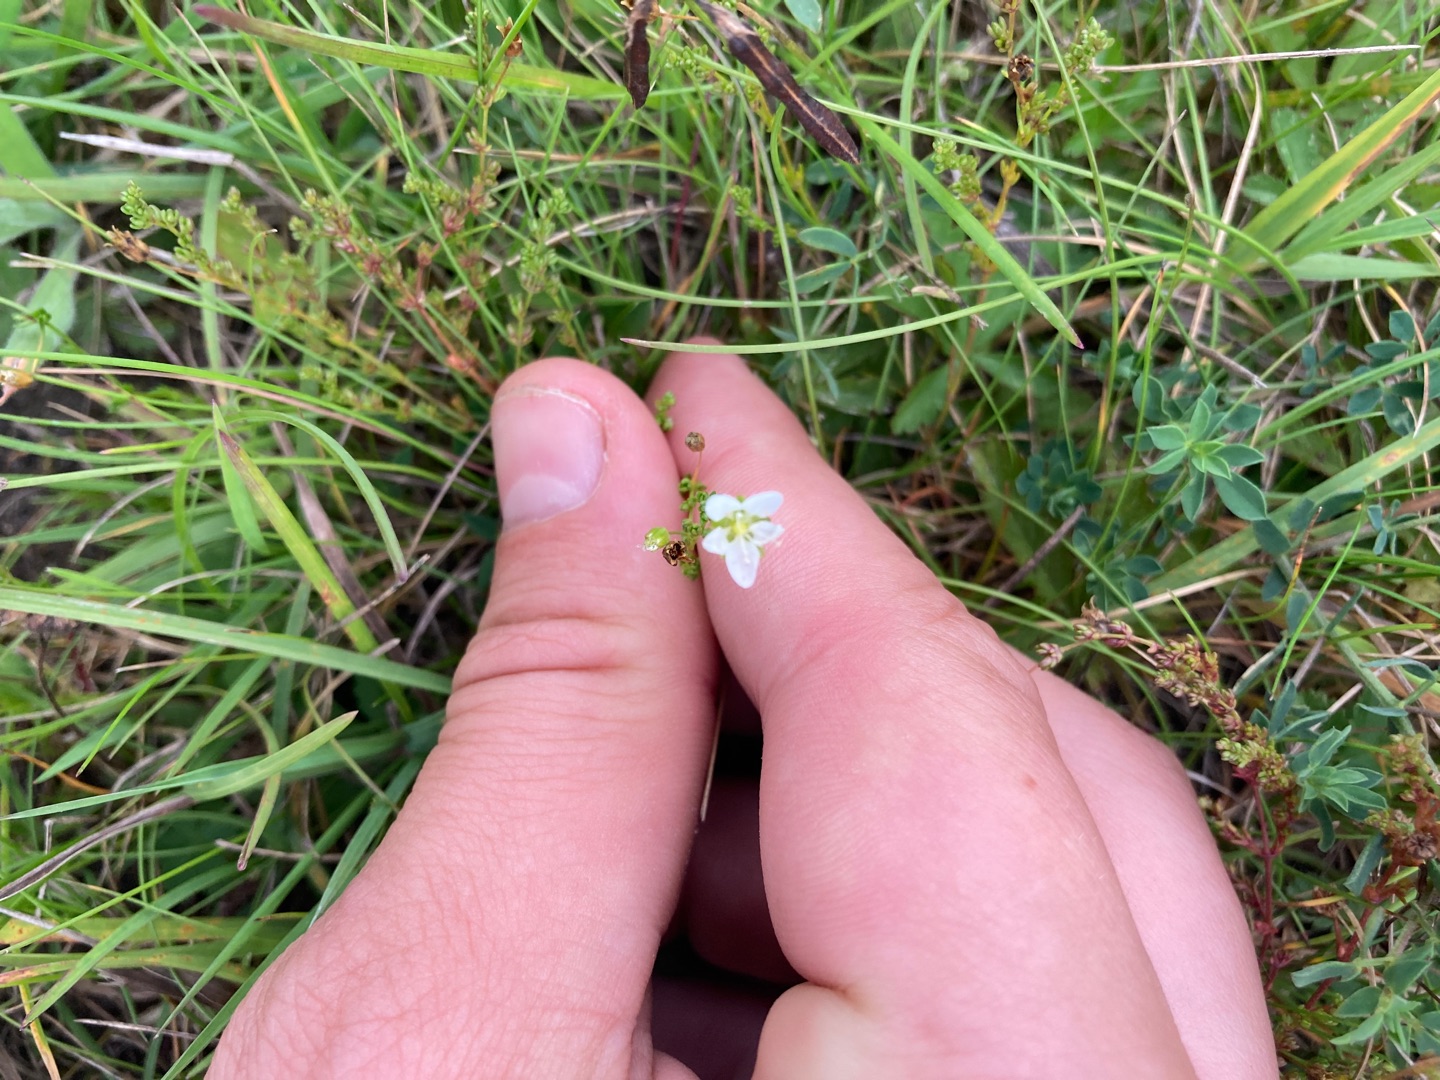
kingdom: Plantae
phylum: Tracheophyta
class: Magnoliopsida
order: Caryophyllales
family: Caryophyllaceae
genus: Sagina
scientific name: Sagina nodosa
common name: Knude-firling
